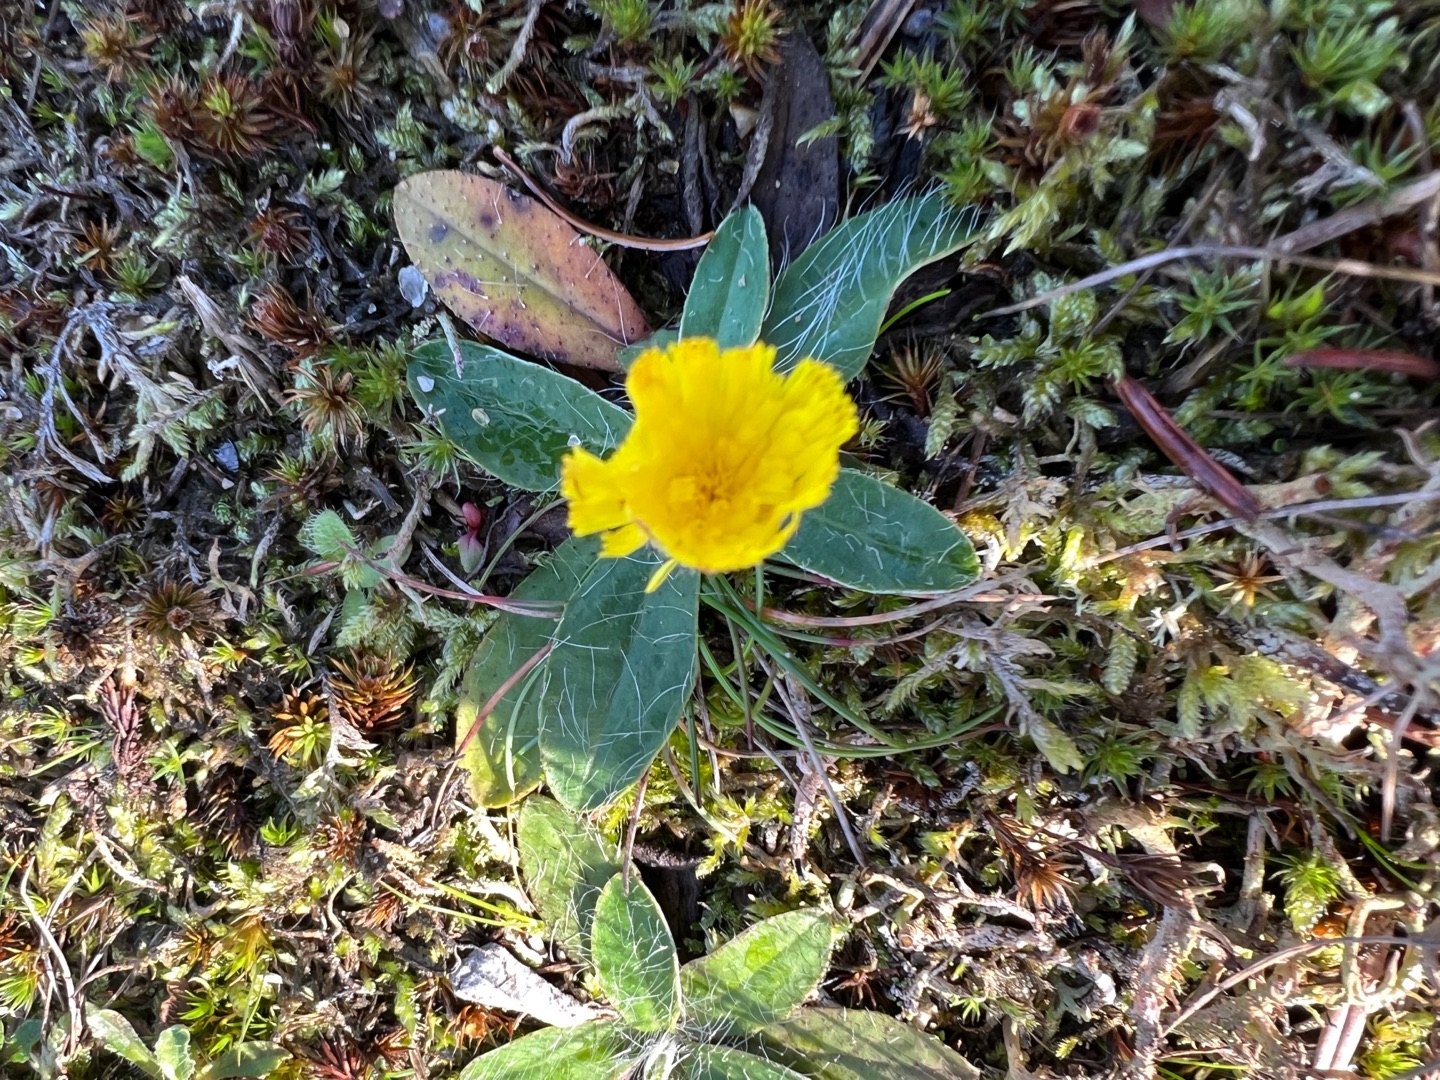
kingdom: Plantae
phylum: Tracheophyta
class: Magnoliopsida
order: Asterales
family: Asteraceae
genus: Pilosella
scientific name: Pilosella officinarum
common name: Håret høgeurt
